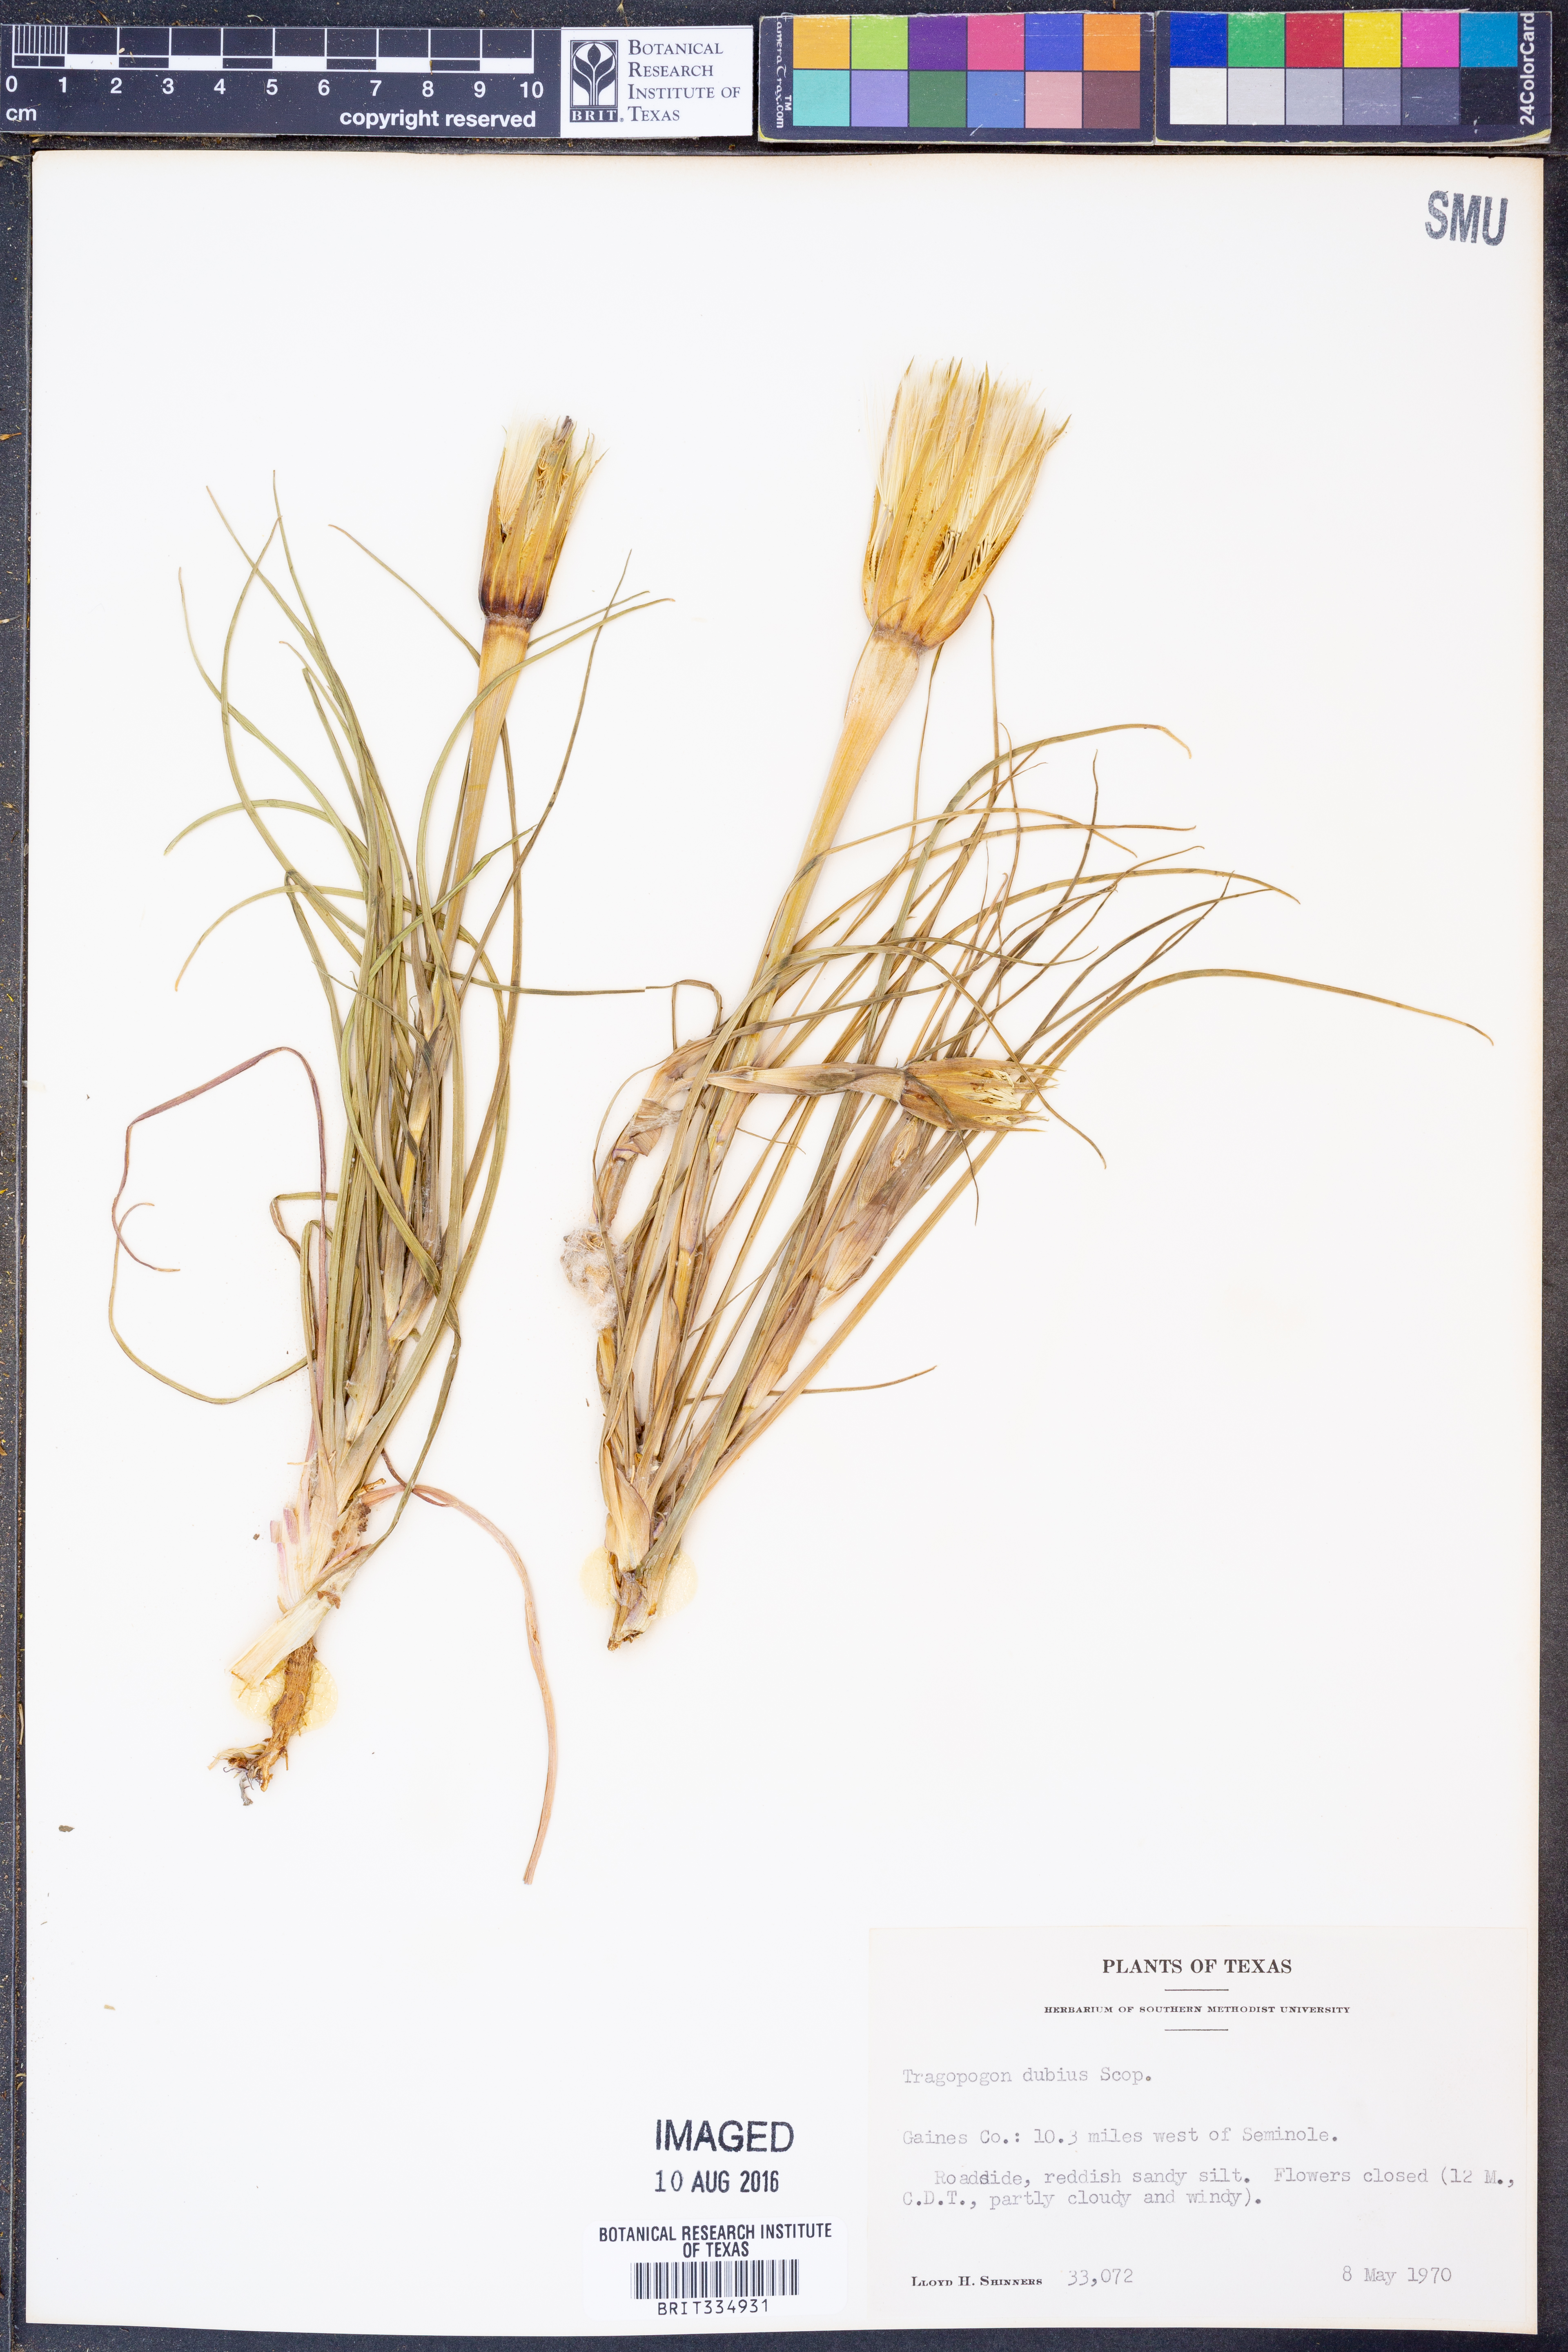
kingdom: Plantae
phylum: Tracheophyta
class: Magnoliopsida
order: Asterales
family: Asteraceae
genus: Tragopogon
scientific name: Tragopogon dubius
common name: Yellow salsify
